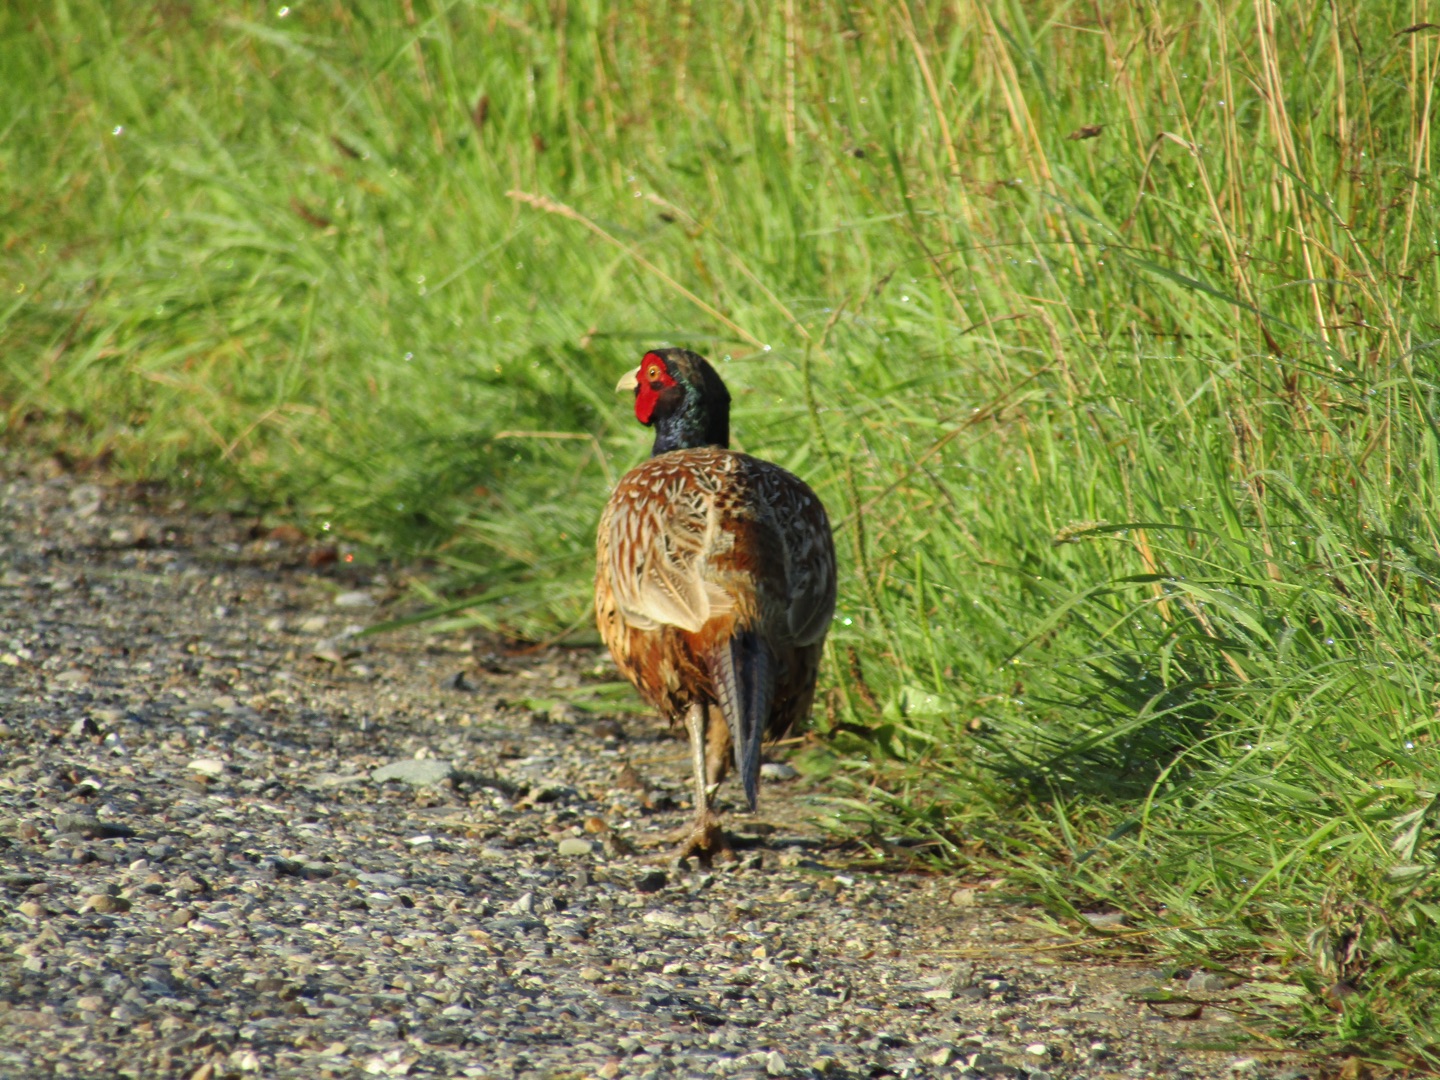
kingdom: Animalia
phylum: Chordata
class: Aves
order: Galliformes
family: Phasianidae
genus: Phasianus
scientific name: Phasianus colchicus
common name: Fasan
